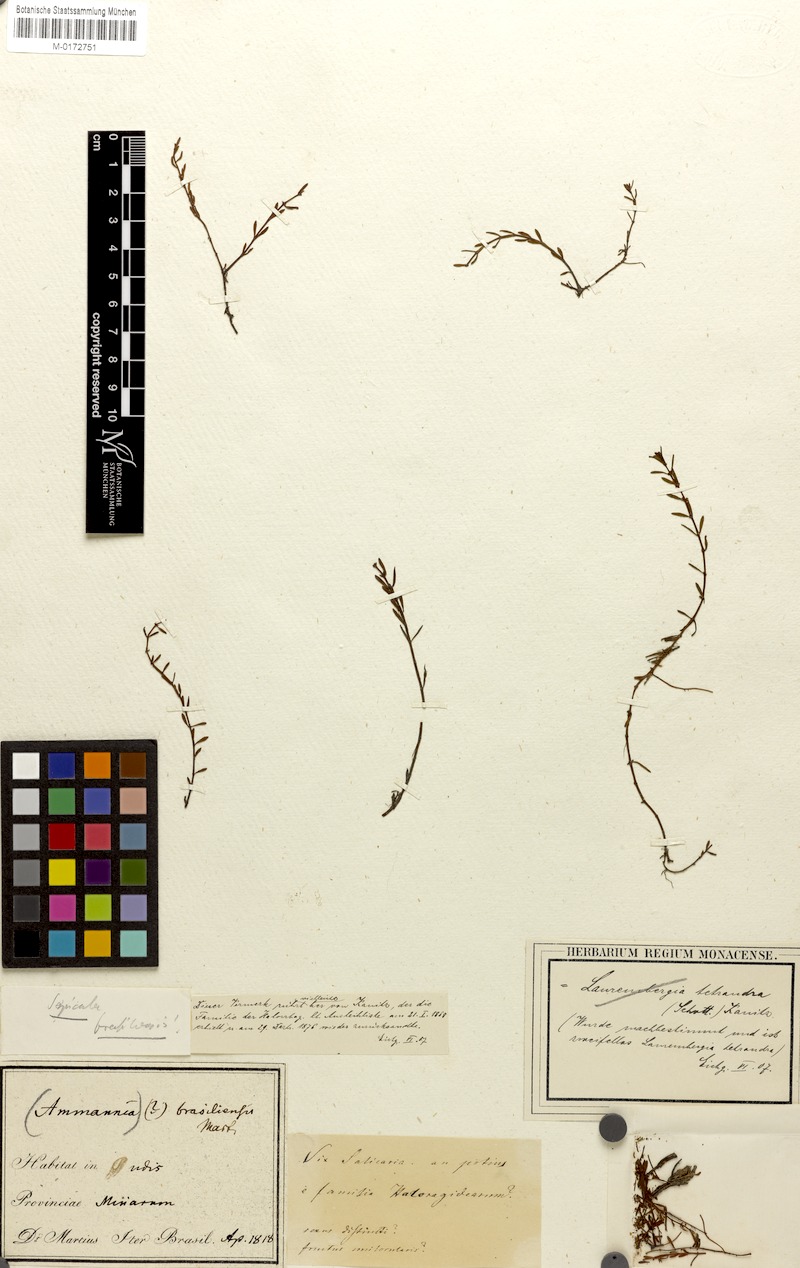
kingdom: Plantae
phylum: Tracheophyta
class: Magnoliopsida
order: Saxifragales
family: Haloragaceae
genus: Laurembergia
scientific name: Laurembergia tetrandra
